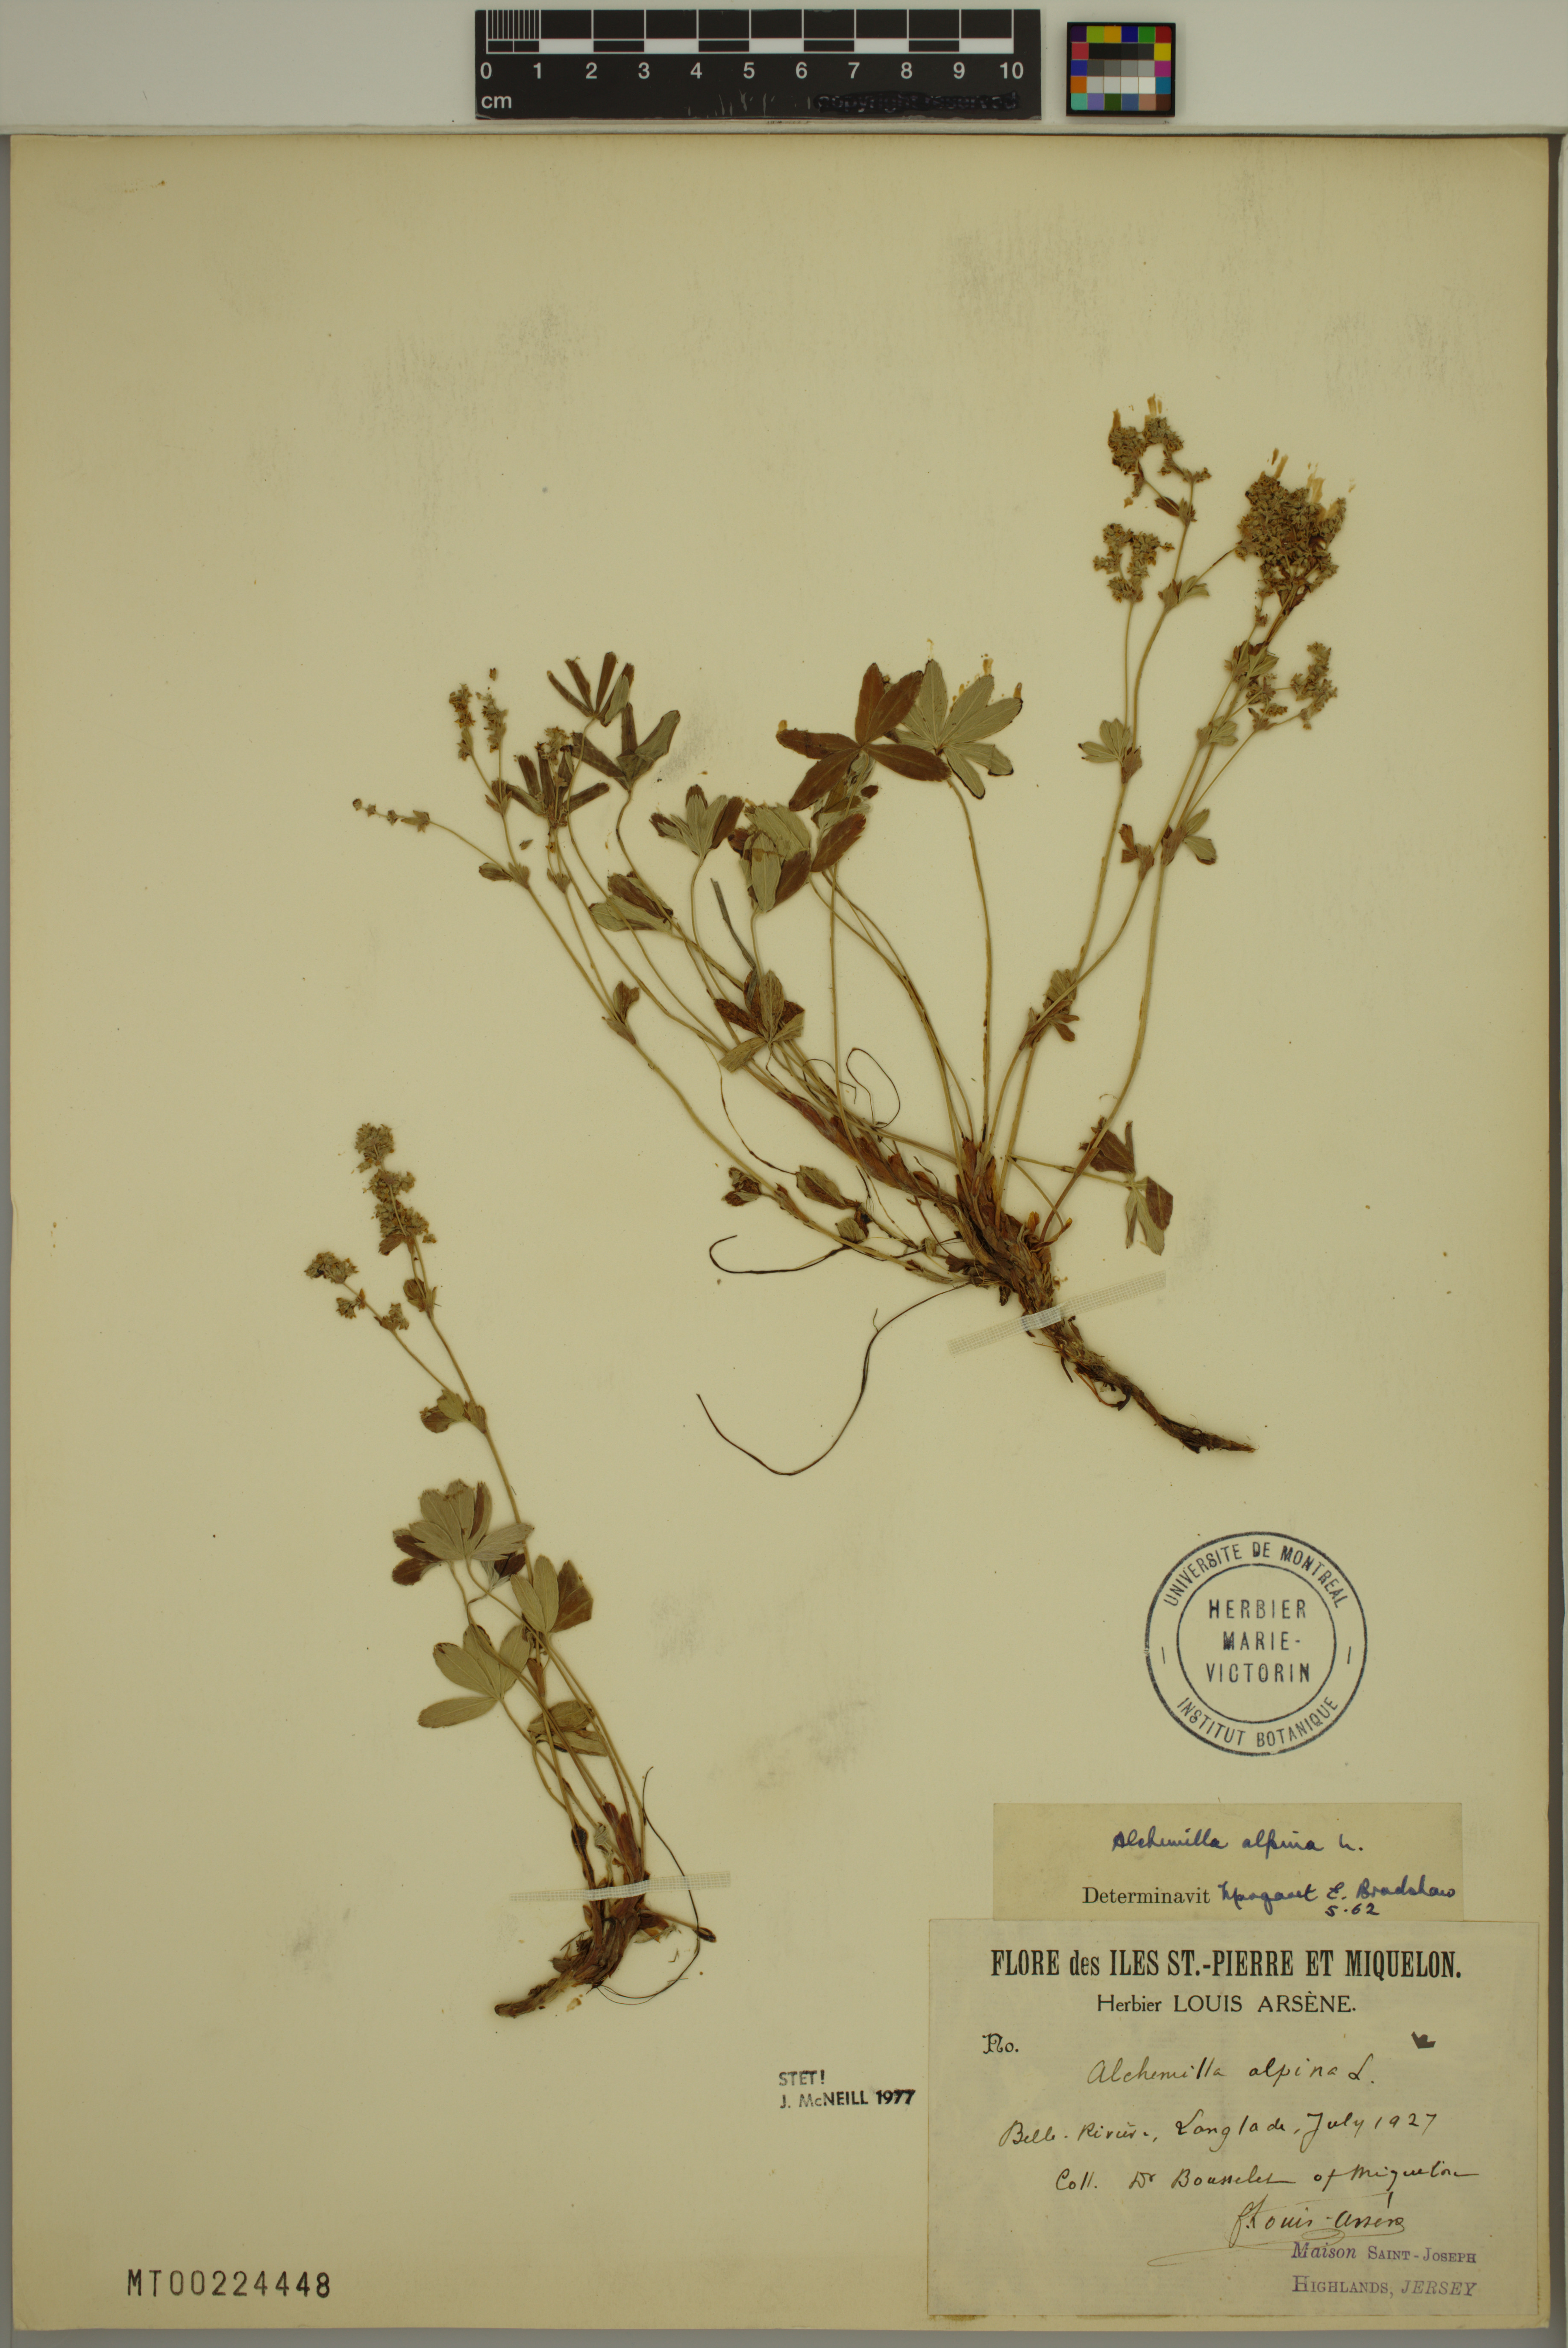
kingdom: Plantae
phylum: Tracheophyta
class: Magnoliopsida
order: Rosales
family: Rosaceae
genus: Alchemilla
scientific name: Alchemilla alpina
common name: Alpine lady's-mantle
